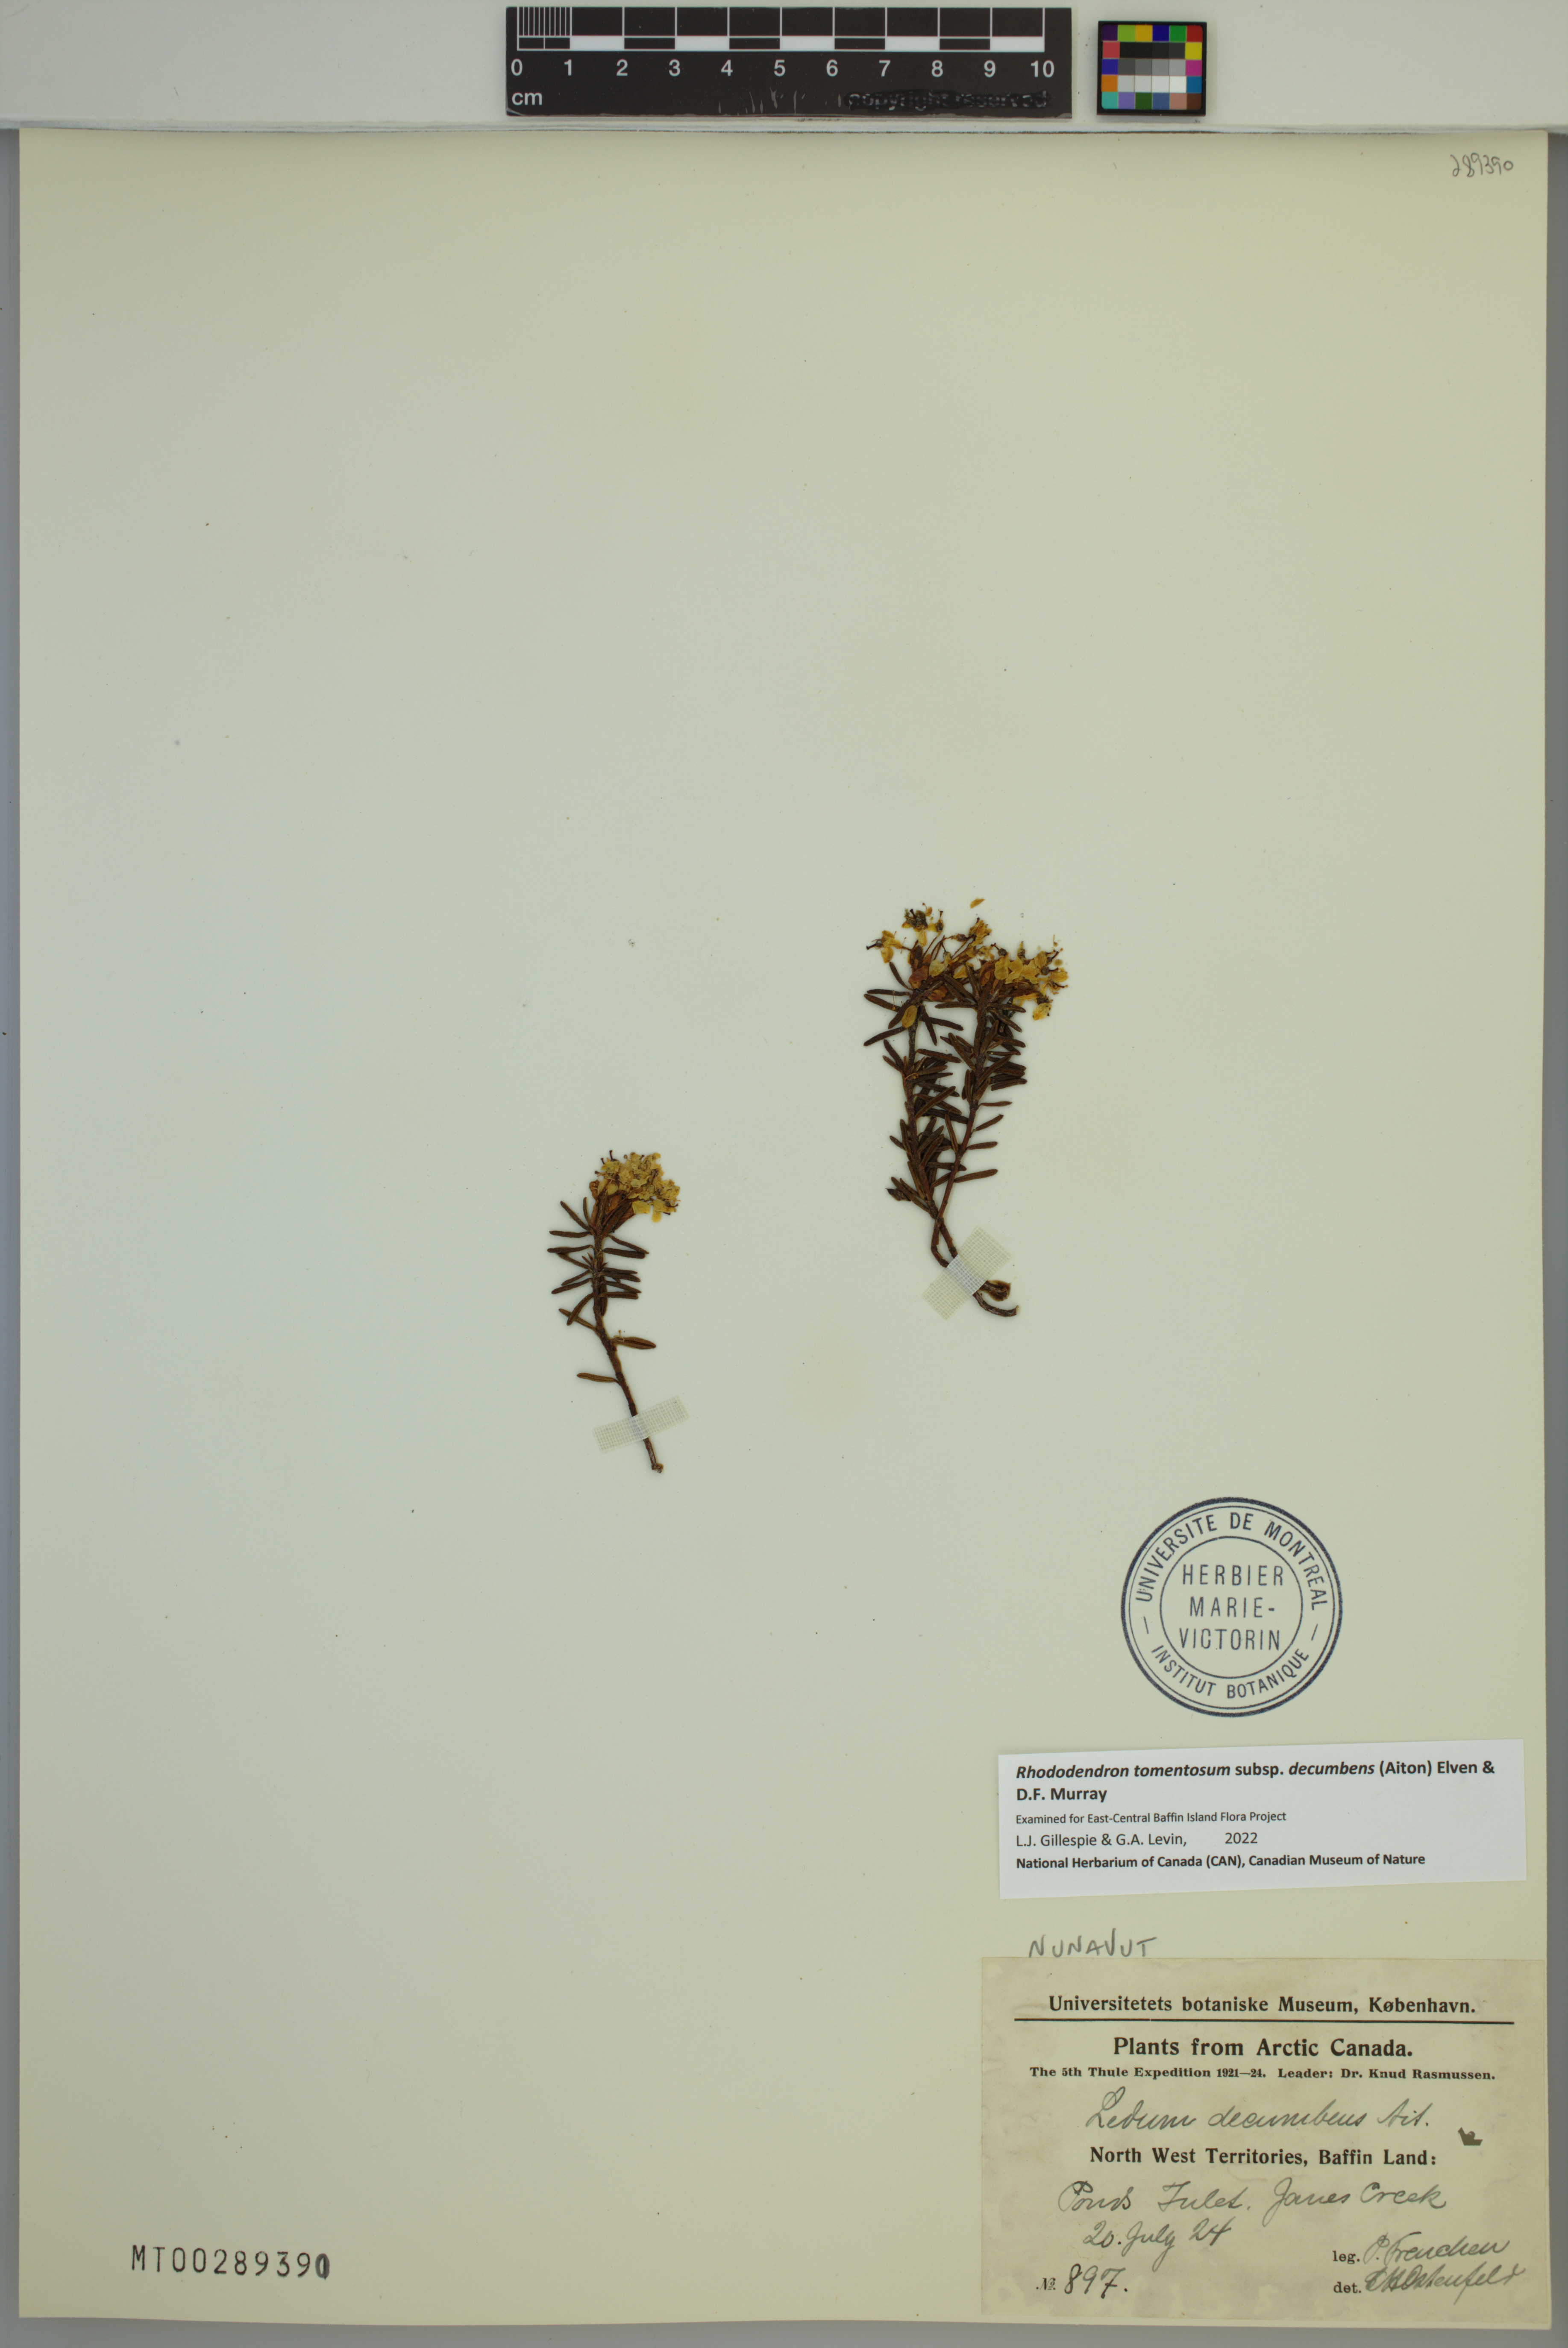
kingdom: Plantae
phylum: Tracheophyta
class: Magnoliopsida
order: Ericales
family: Ericaceae
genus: Rhododendron
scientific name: Rhododendron tomentosum
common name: Marsh labrador tea
